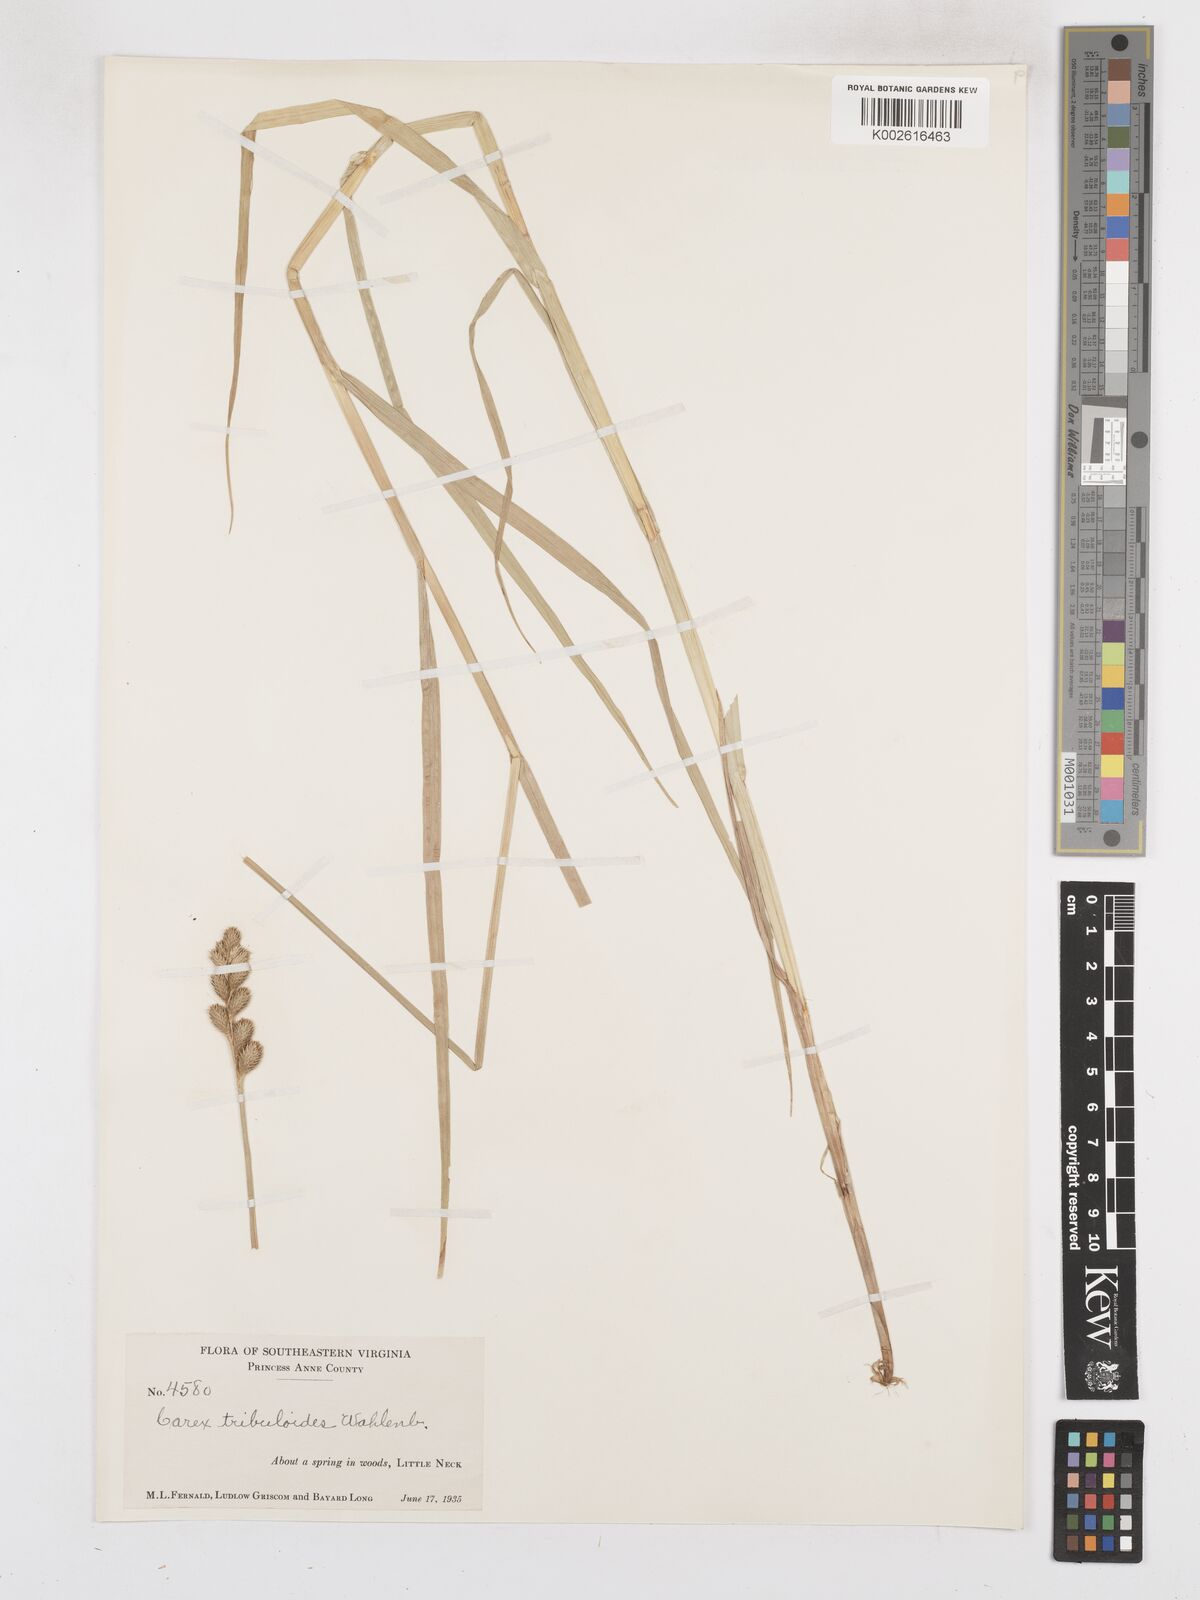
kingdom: Plantae
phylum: Tracheophyta
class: Liliopsida
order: Poales
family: Cyperaceae
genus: Carex
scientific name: Carex tribuloides
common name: Blunt broom sedge
